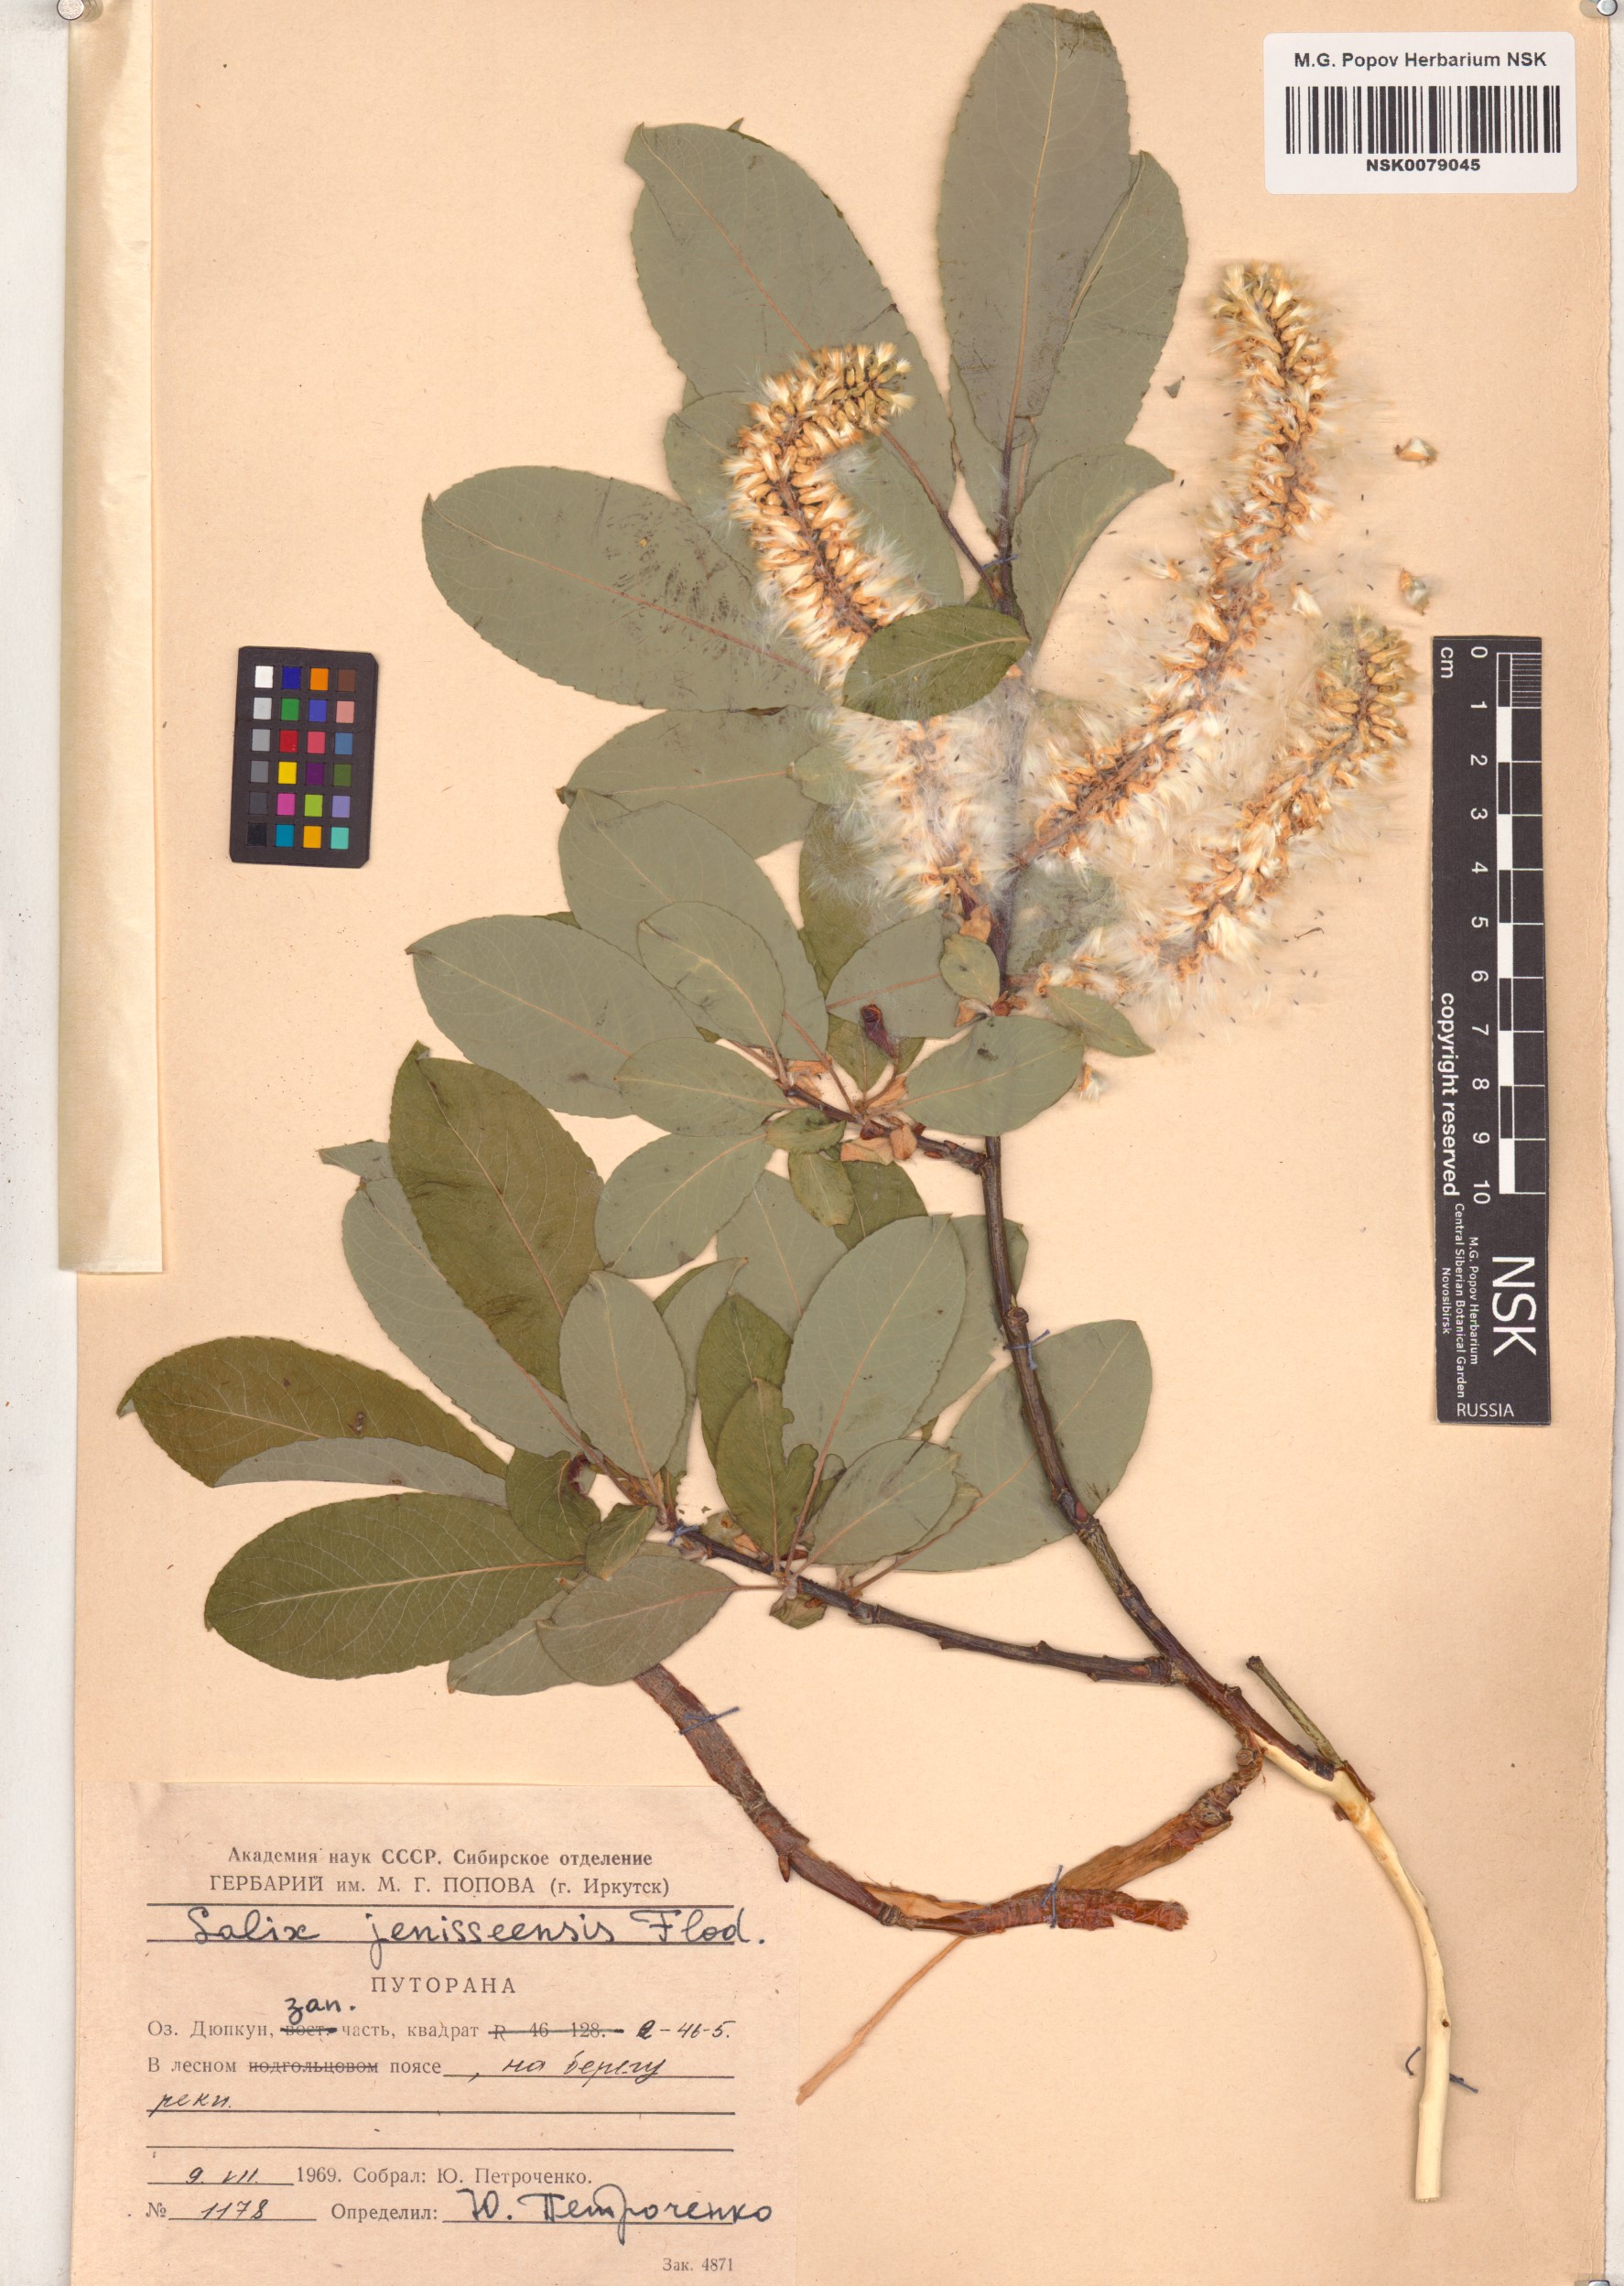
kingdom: Plantae
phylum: Tracheophyta
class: Magnoliopsida
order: Malpighiales
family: Salicaceae
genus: Salix
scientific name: Salix jenisseensis
